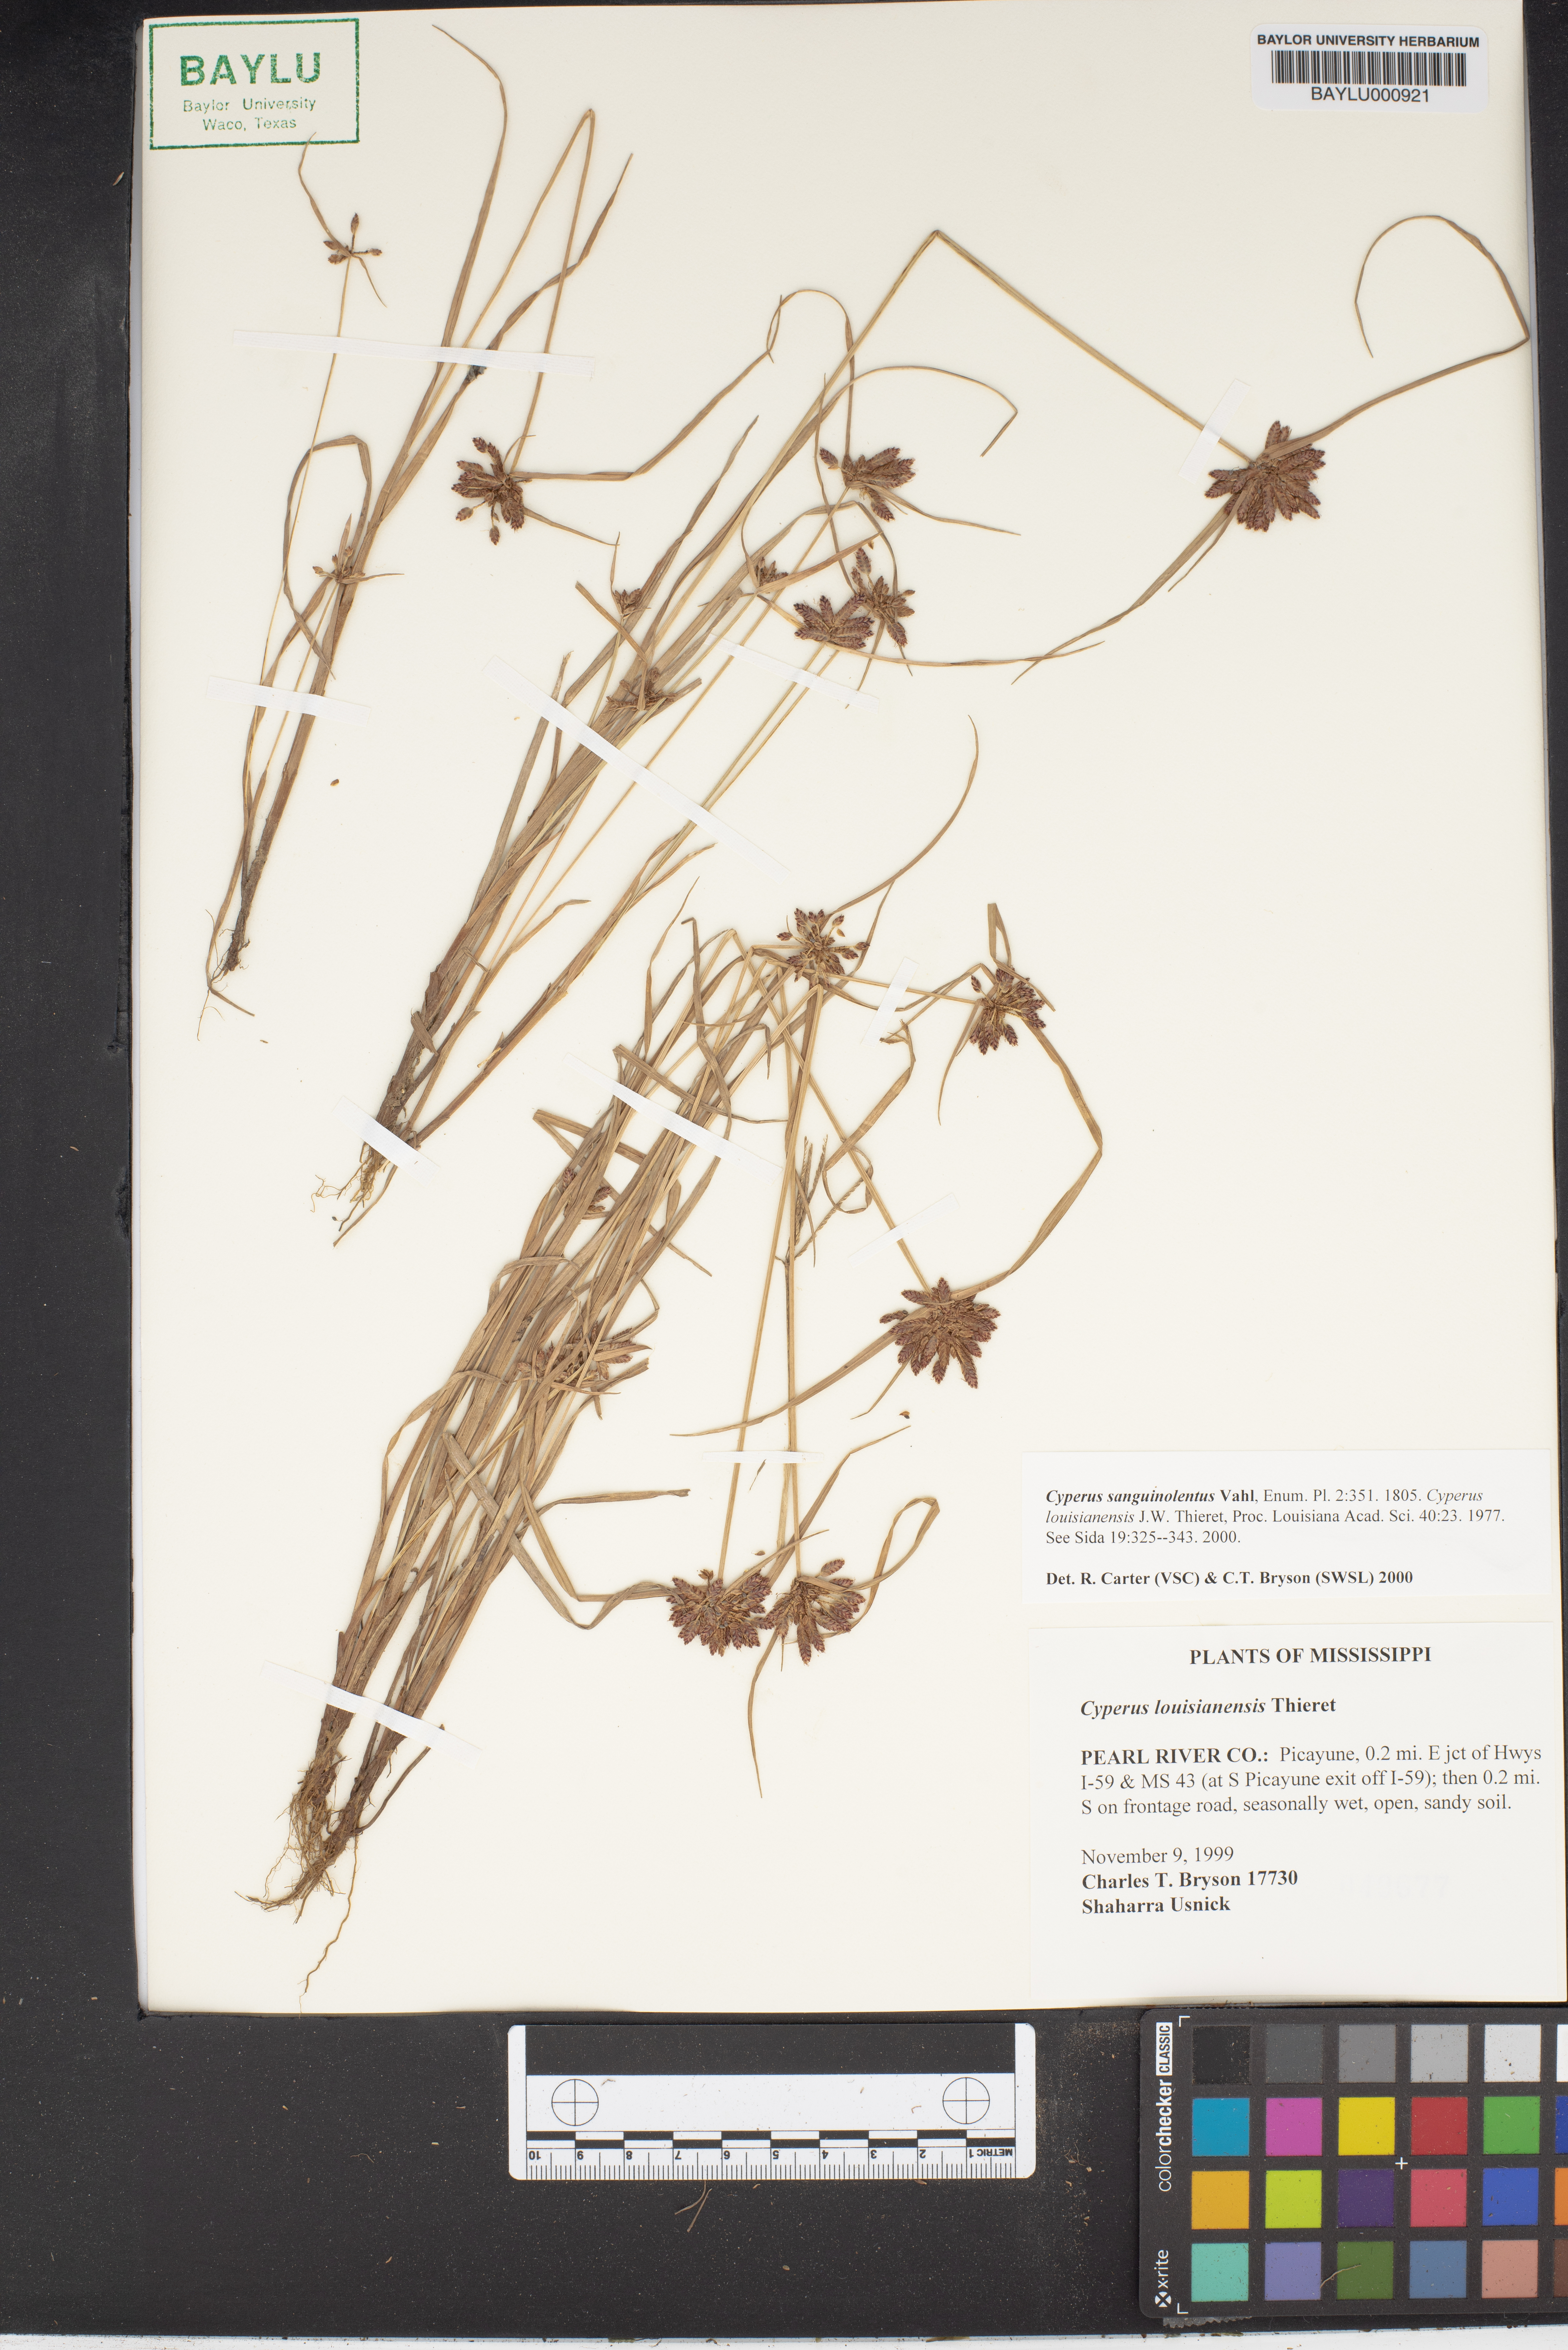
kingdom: Plantae
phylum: Tracheophyta
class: Liliopsida
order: Poales
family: Cyperaceae
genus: Cyperus
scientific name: Cyperus sanguinolentus
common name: Purpleglume flatsedge
